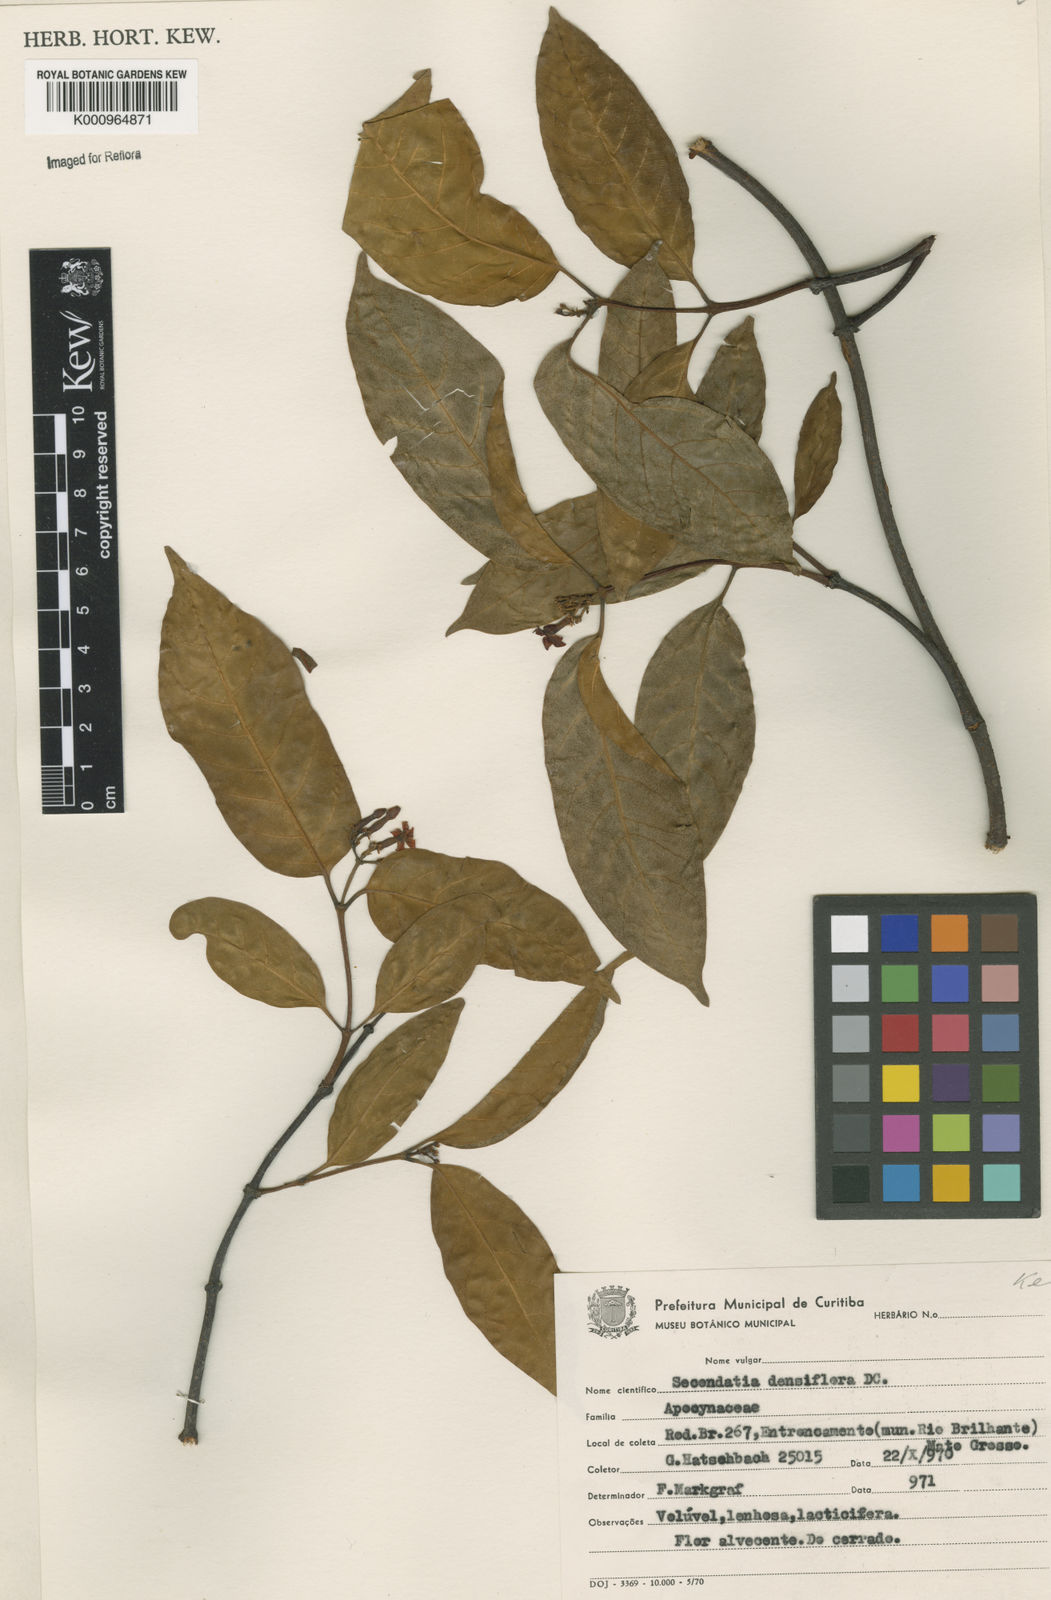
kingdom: Plantae
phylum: Tracheophyta
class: Magnoliopsida
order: Gentianales
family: Apocynaceae
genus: Secondatia
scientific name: Secondatia densiflora
